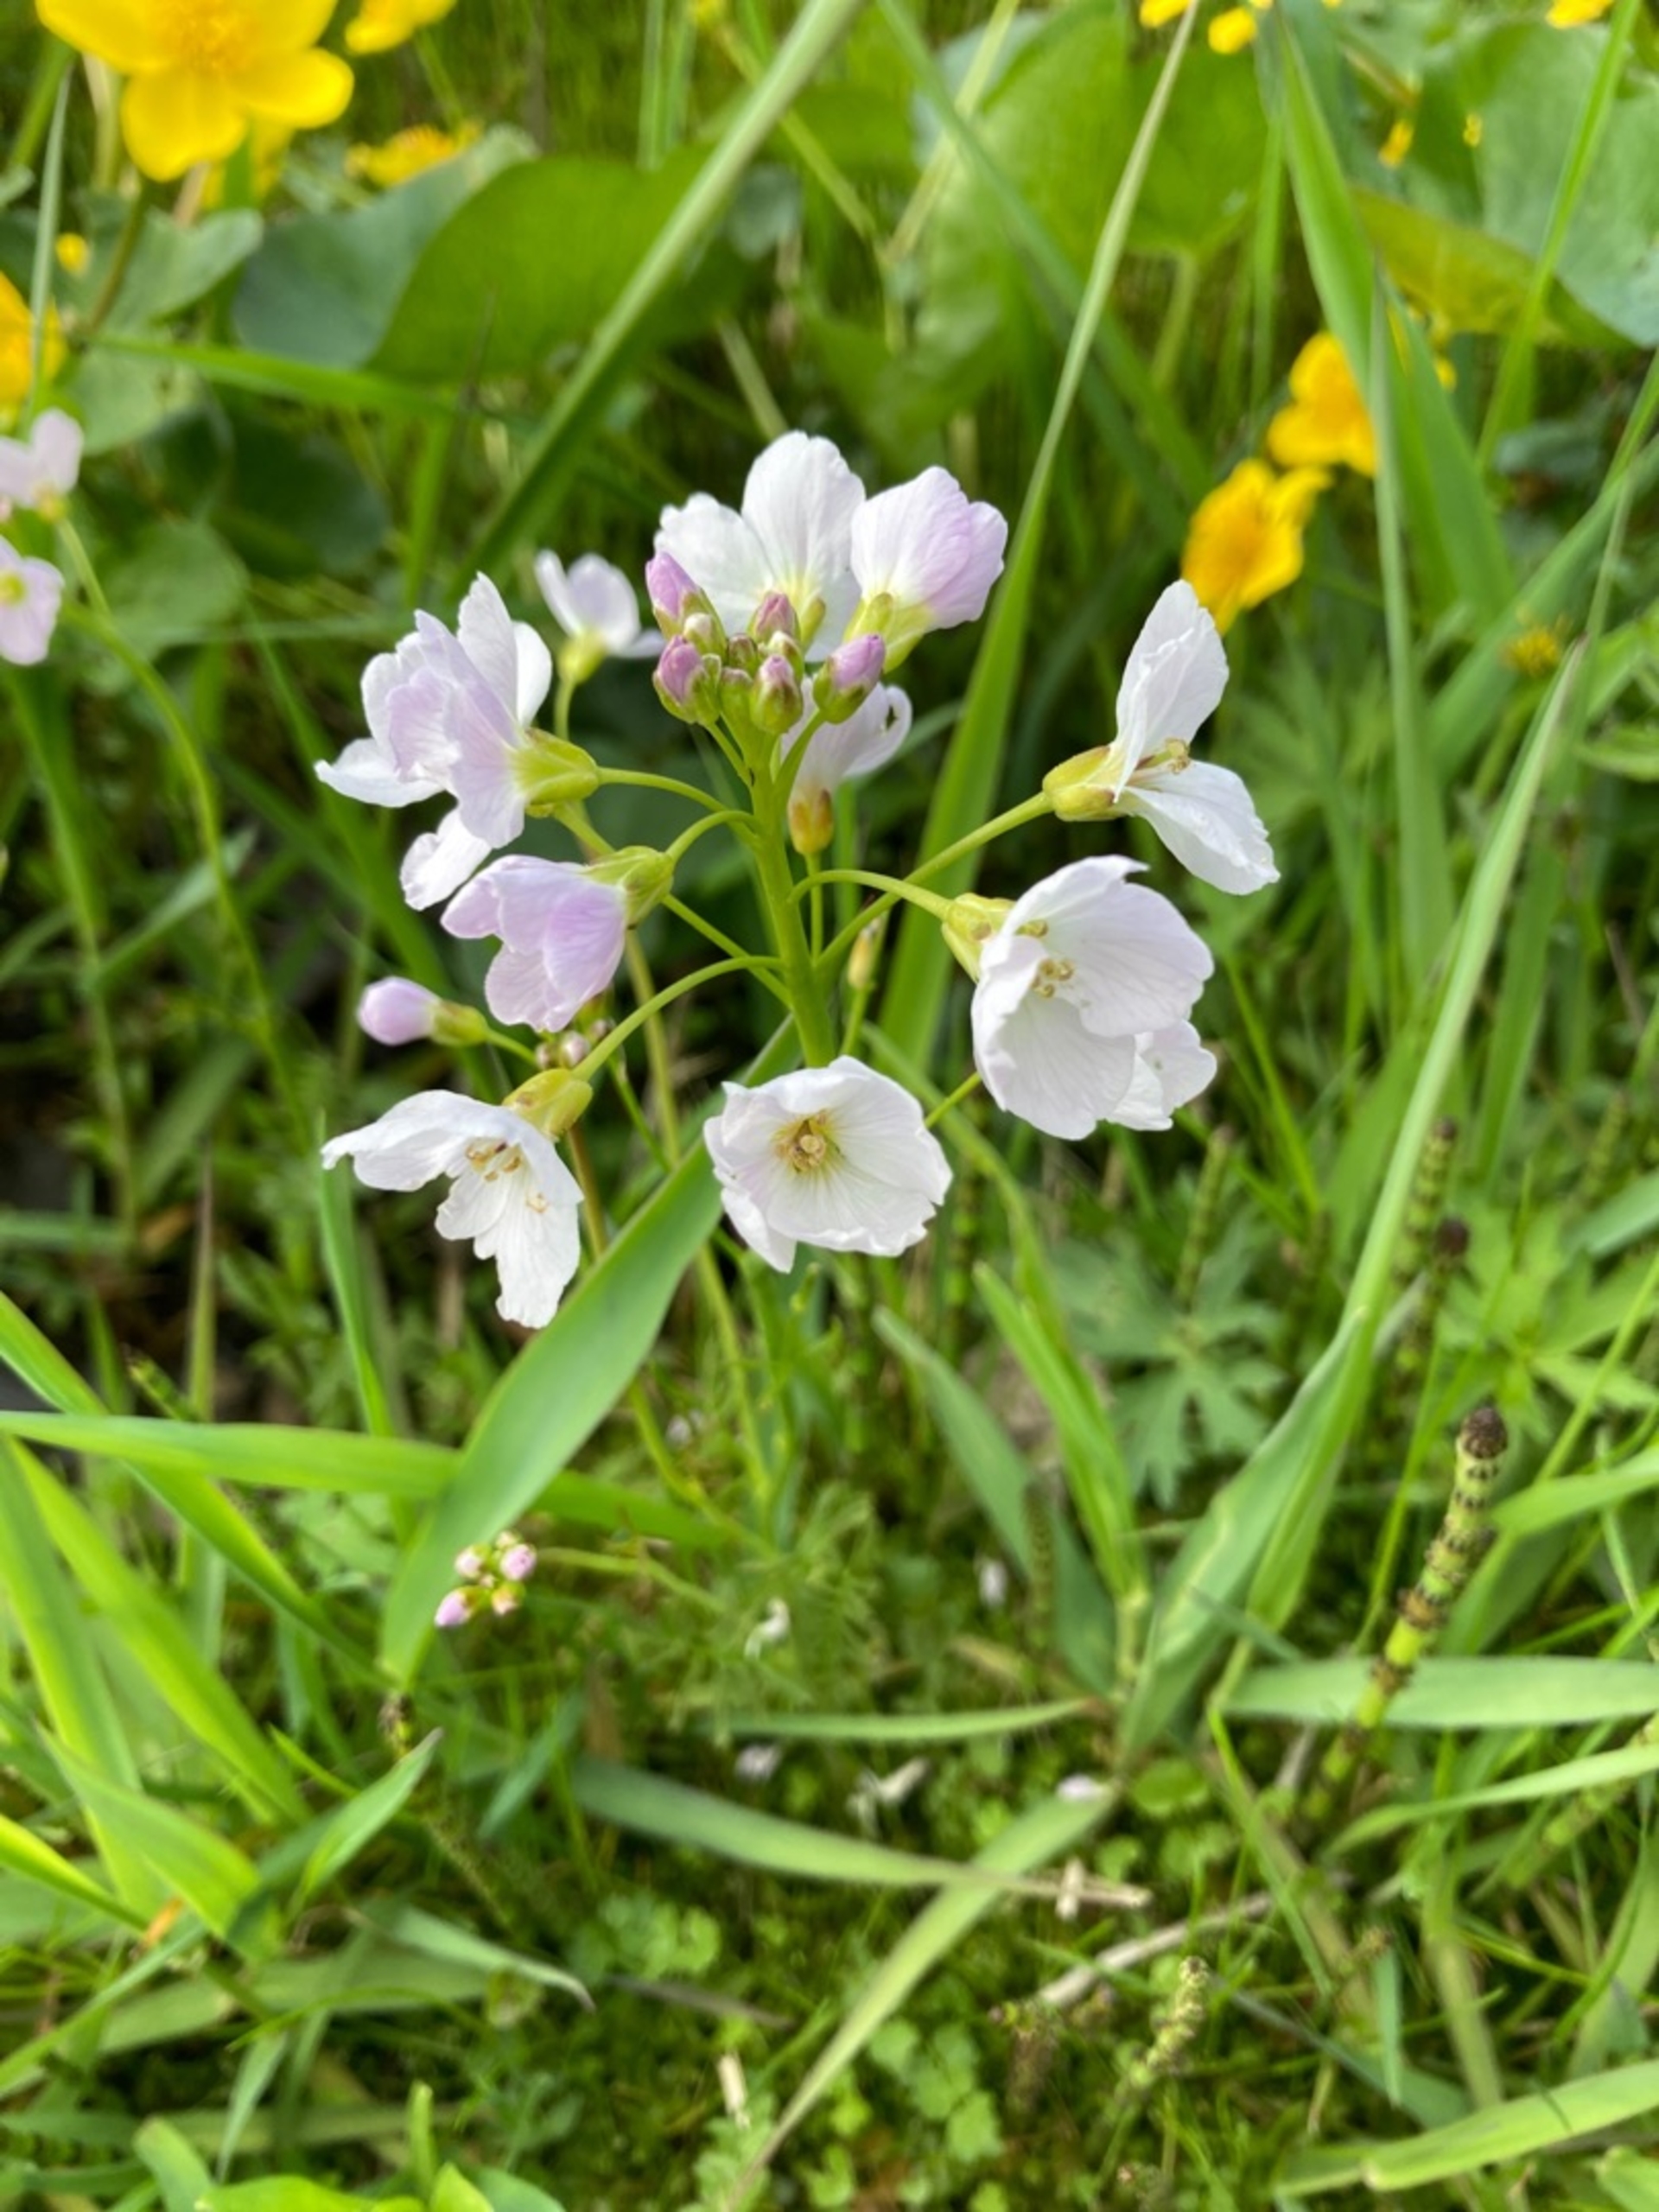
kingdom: Plantae
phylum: Tracheophyta
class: Magnoliopsida
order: Brassicales
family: Brassicaceae
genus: Cardamine
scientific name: Cardamine pratensis
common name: Engkarse
